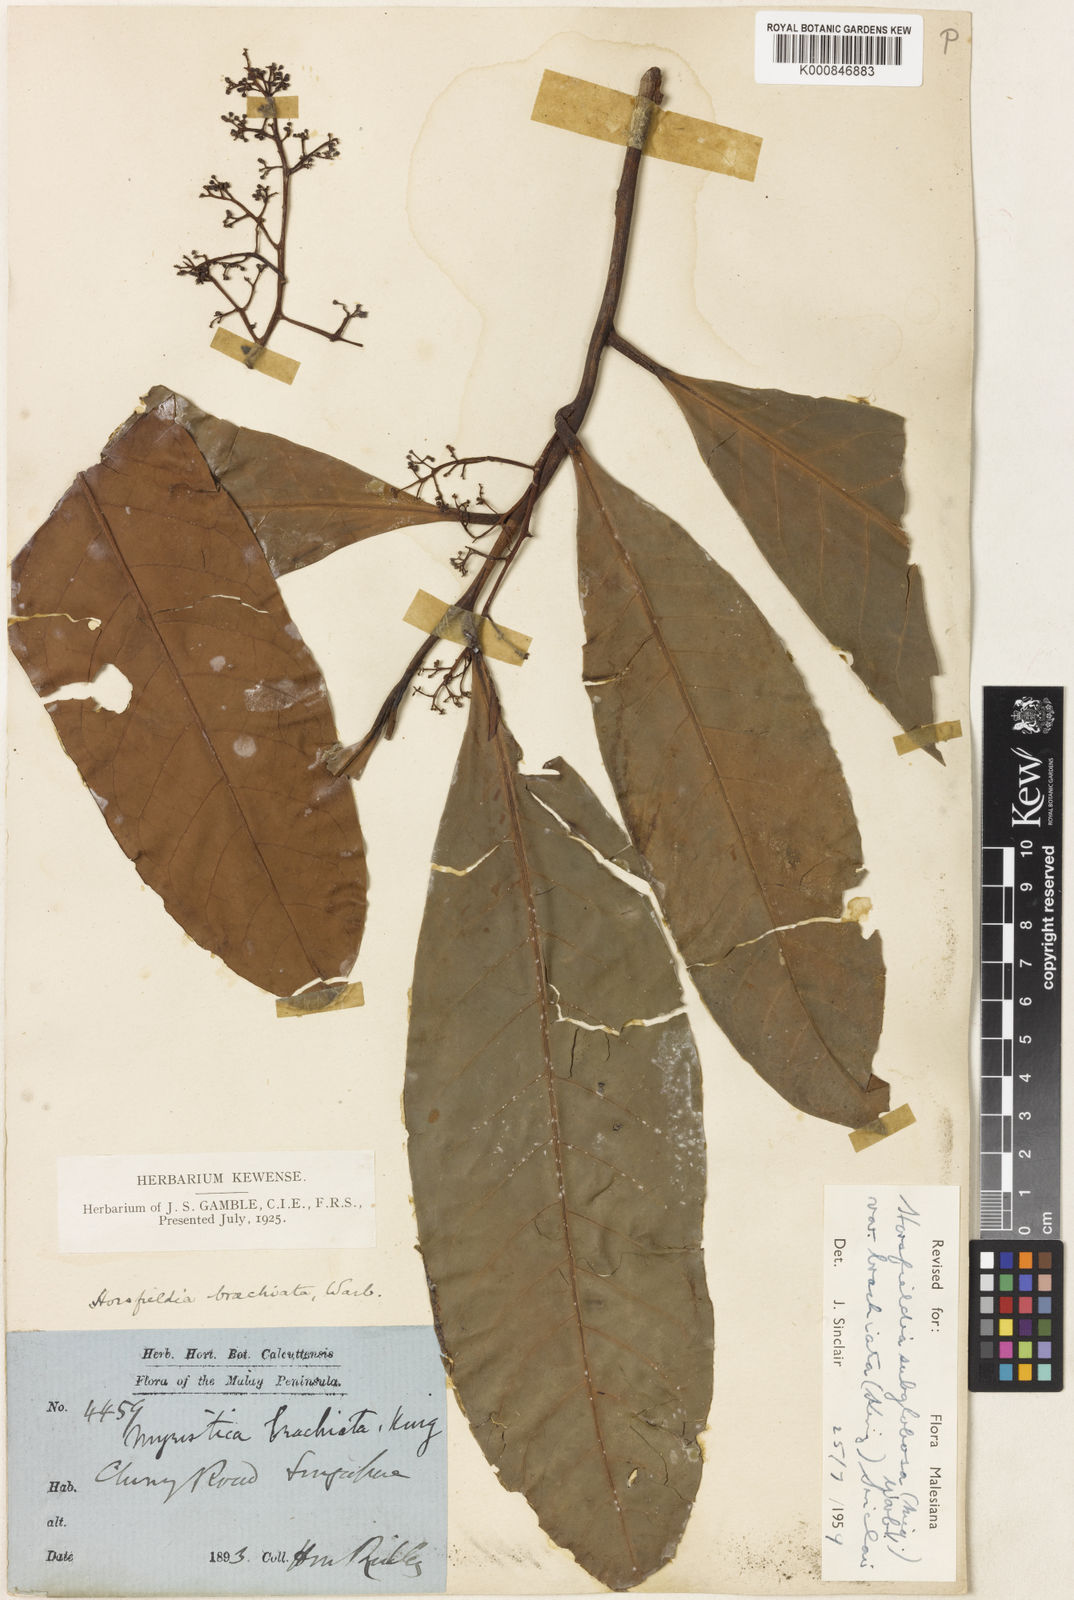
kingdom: Plantae
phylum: Tracheophyta
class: Magnoliopsida
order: Magnoliales
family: Myristicaceae
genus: Horsfieldia
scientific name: Horsfieldia irya
